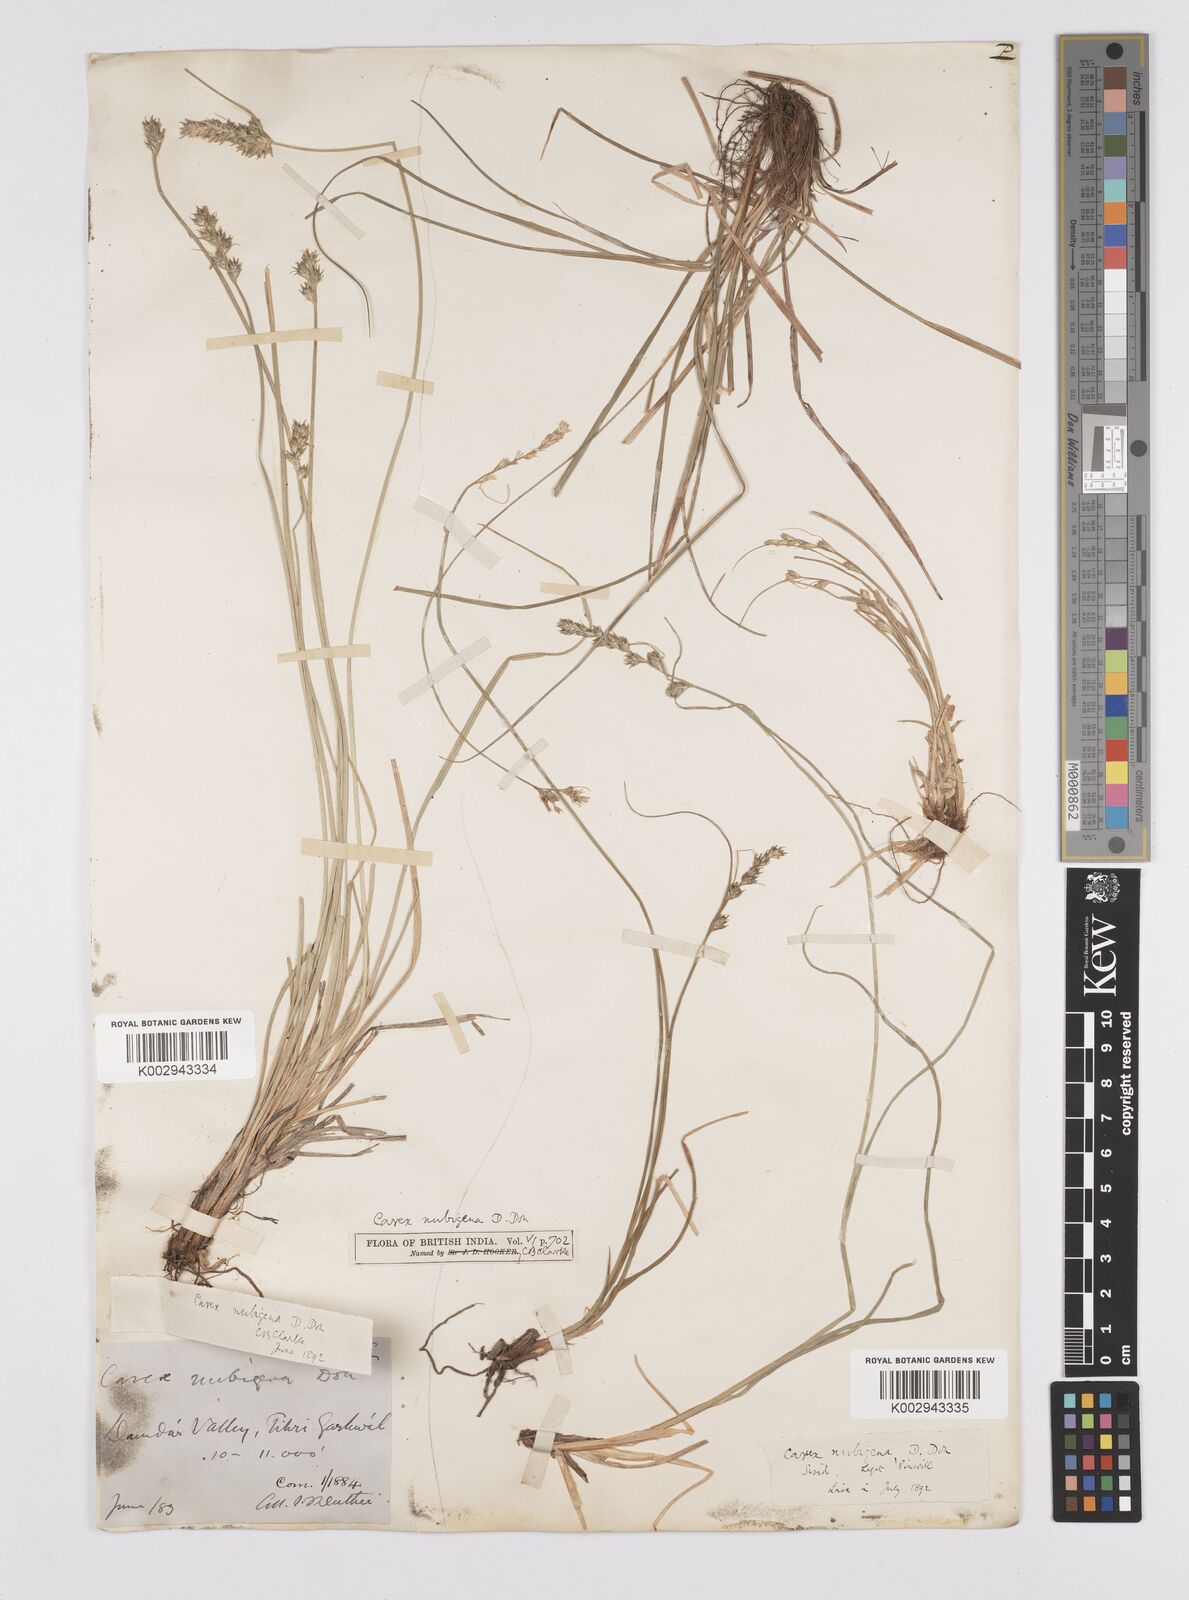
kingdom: Plantae
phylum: Tracheophyta
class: Liliopsida
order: Poales
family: Cyperaceae
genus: Carex
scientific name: Carex nubigena
